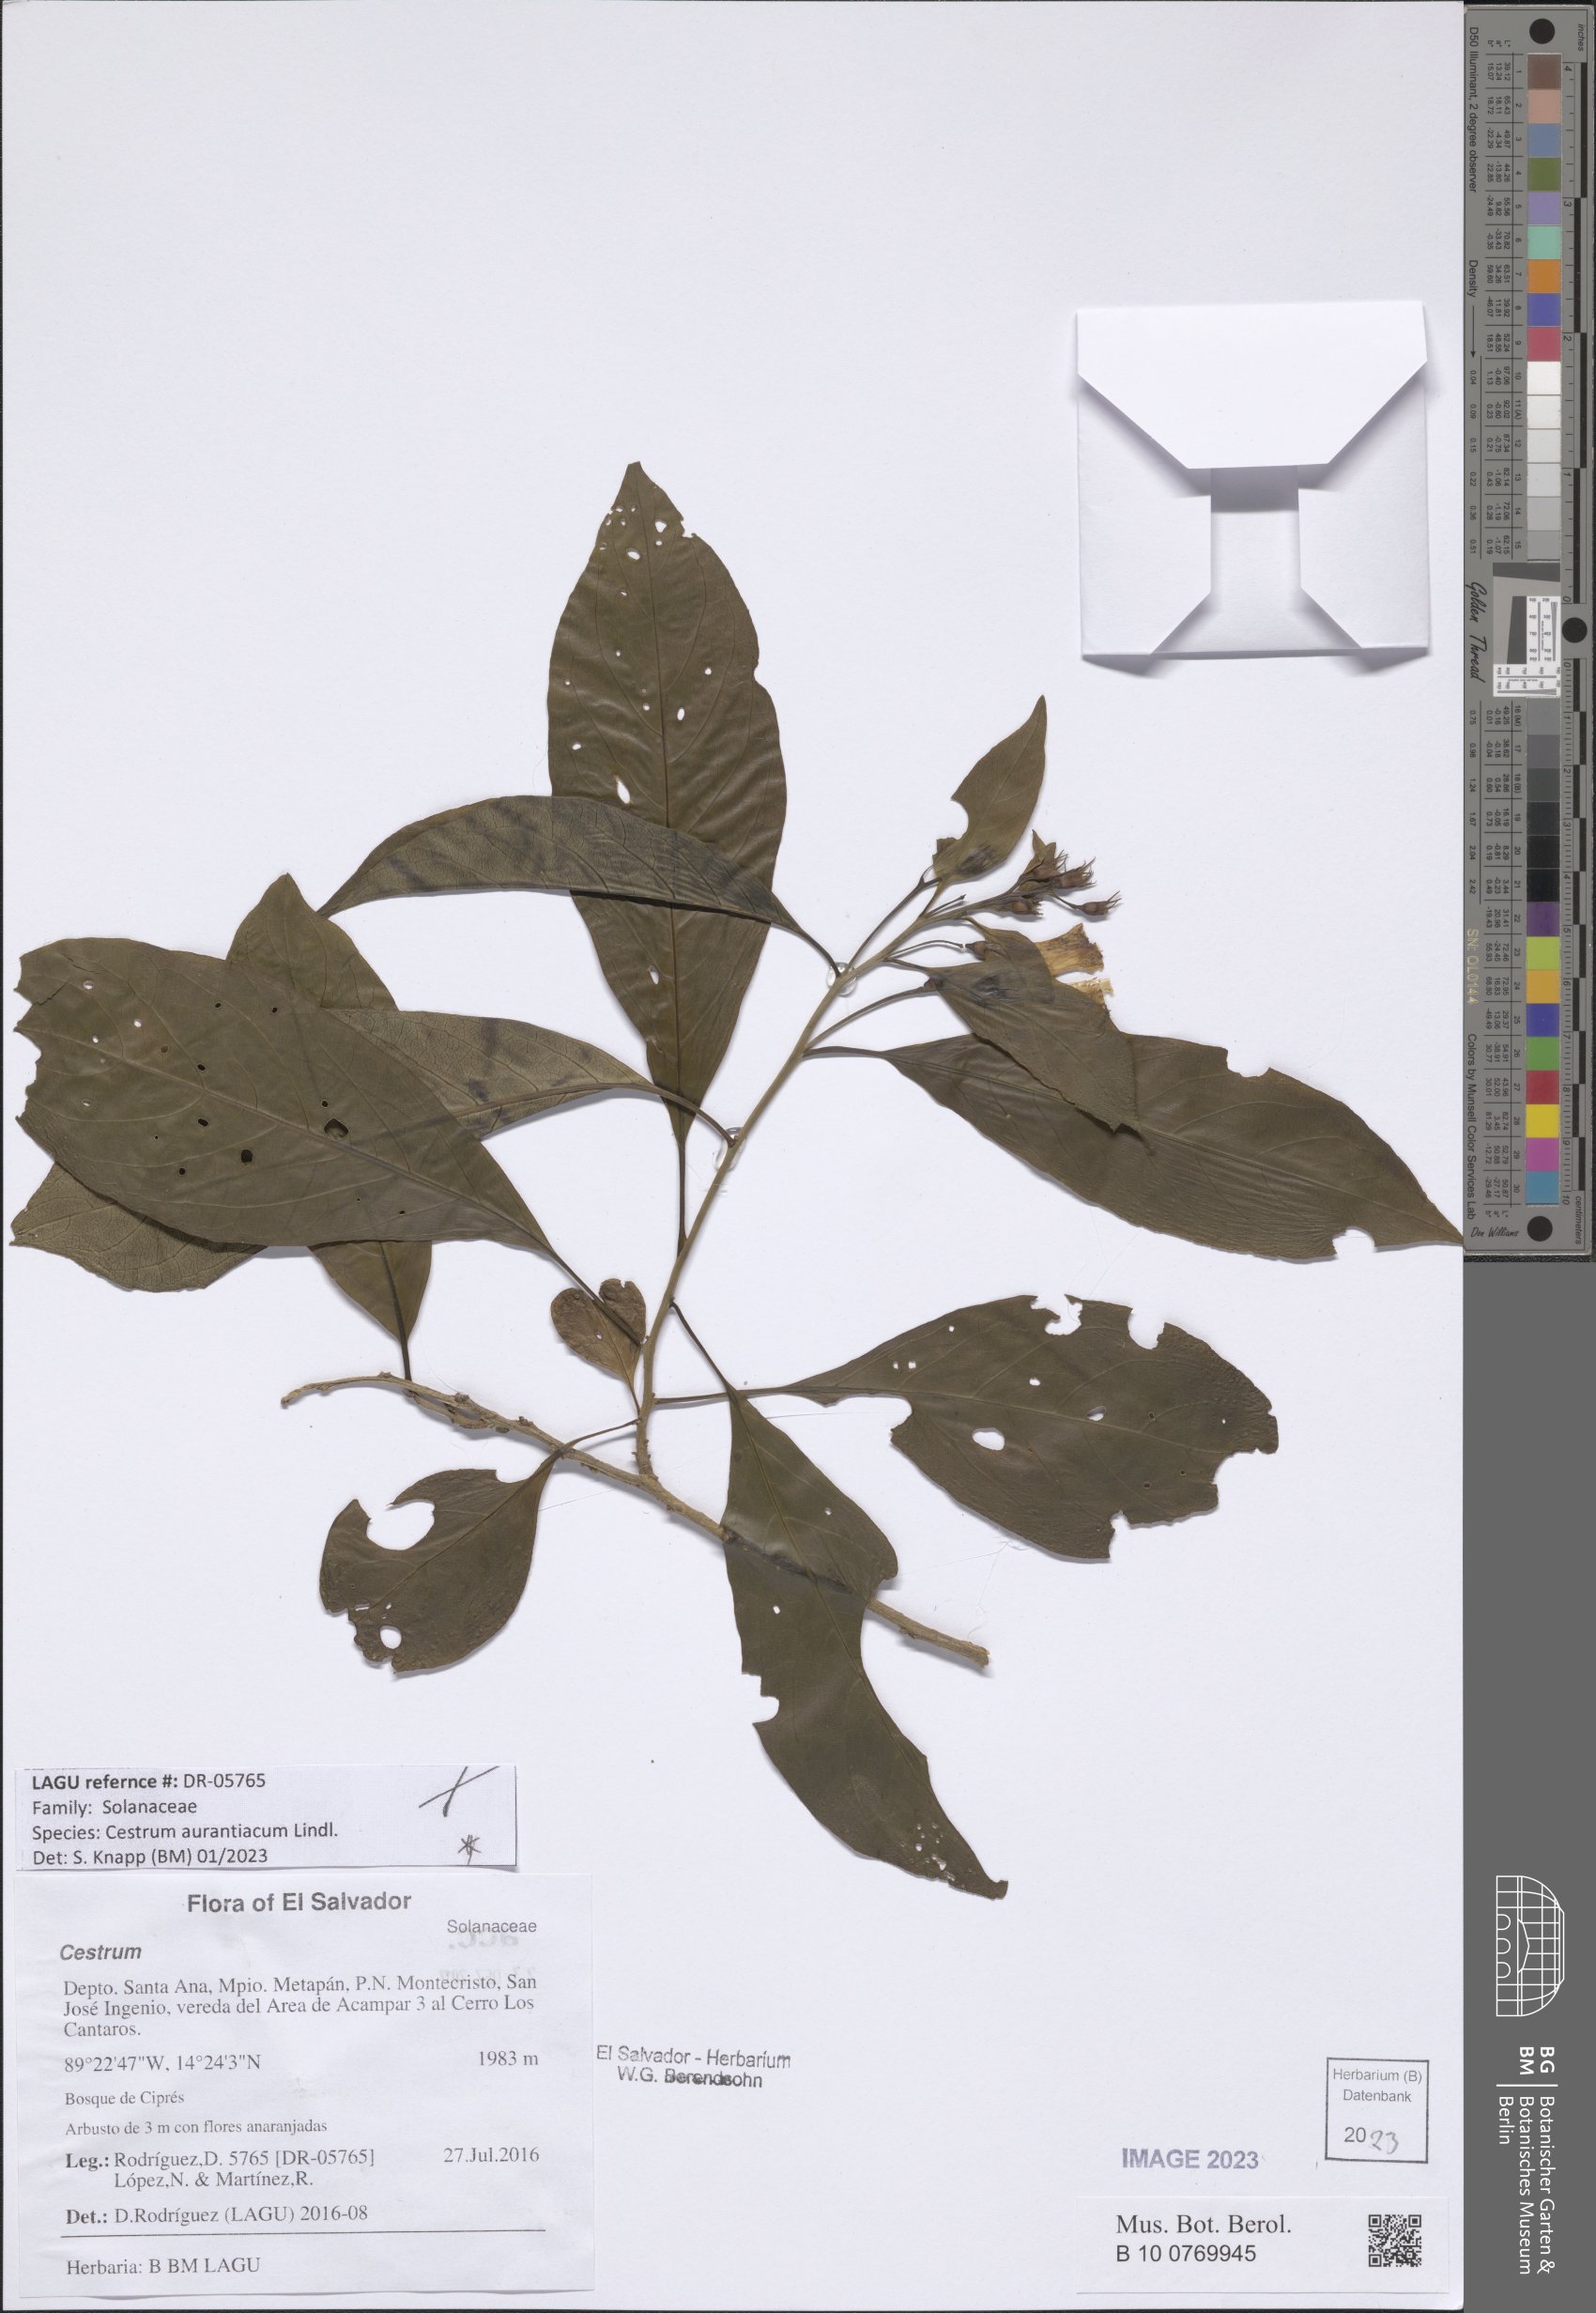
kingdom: Plantae
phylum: Tracheophyta
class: Magnoliopsida
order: Solanales
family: Solanaceae
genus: Cestrum
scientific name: Cestrum aurantiacum
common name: Orange cestrum
